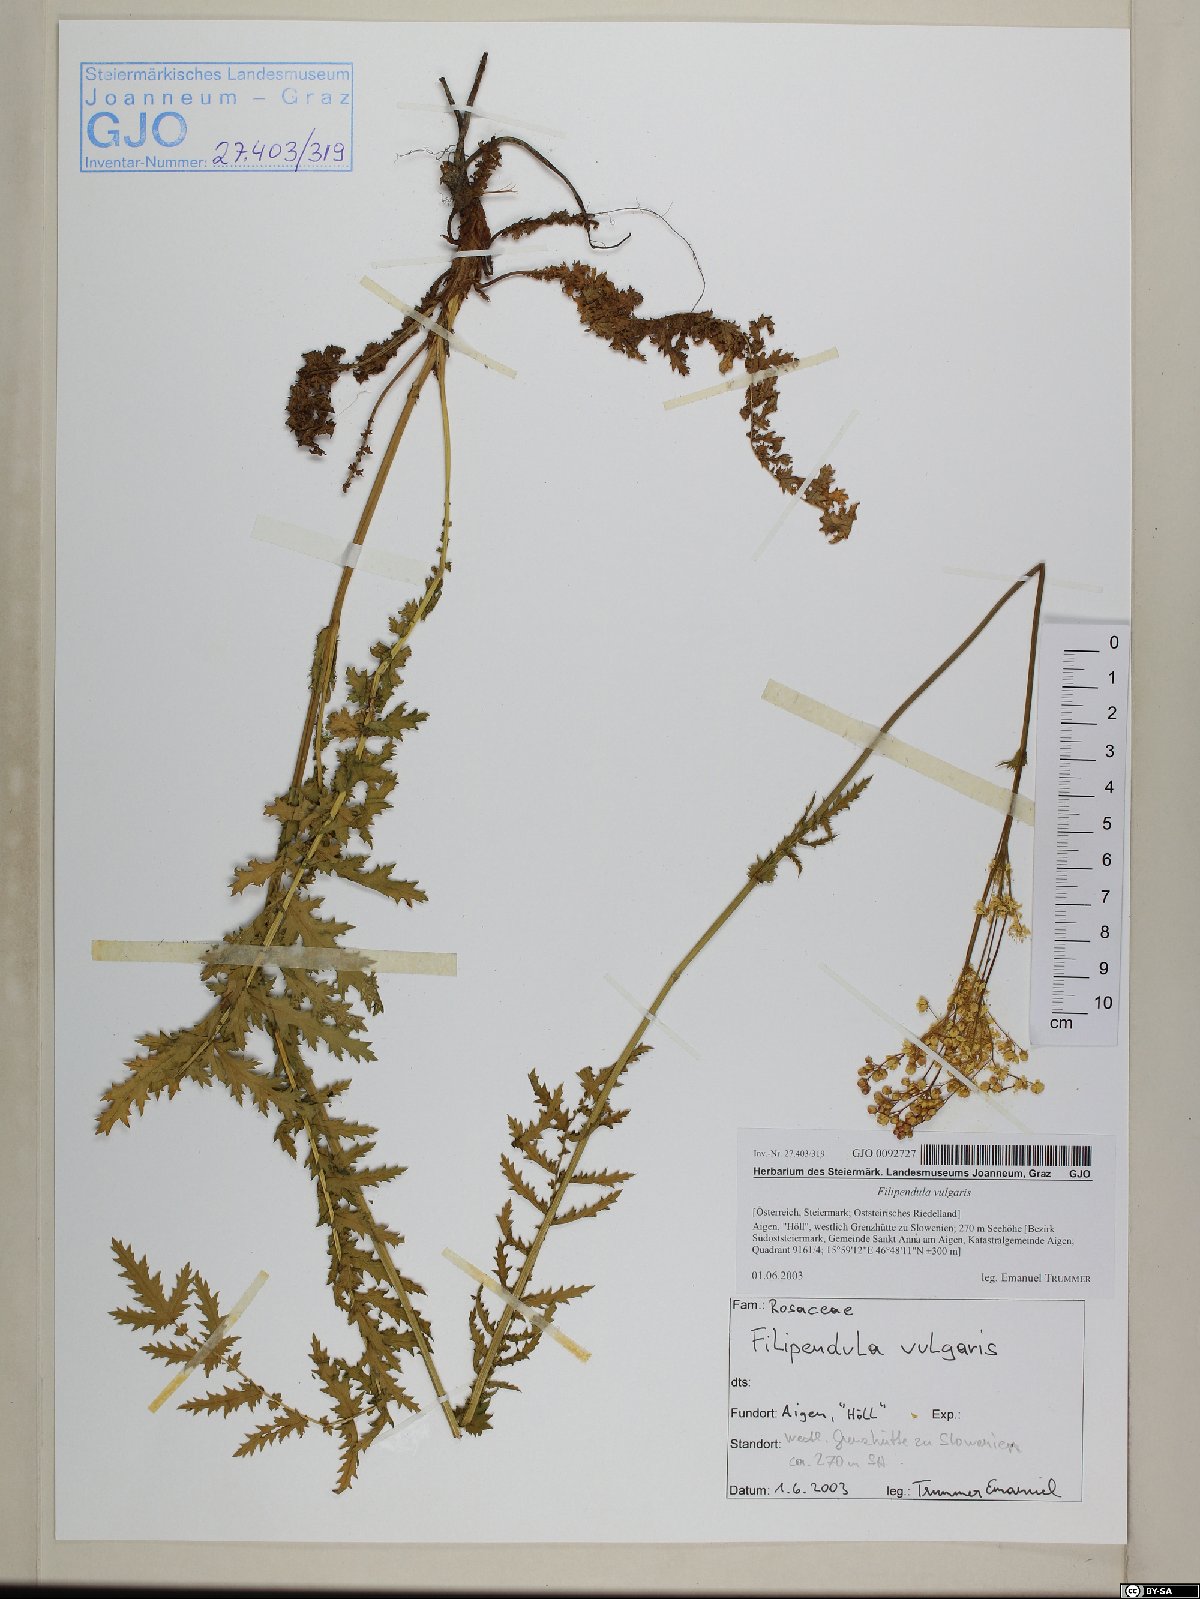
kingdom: Plantae
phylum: Tracheophyta
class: Magnoliopsida
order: Rosales
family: Rosaceae
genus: Filipendula
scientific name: Filipendula vulgaris
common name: Dropwort
